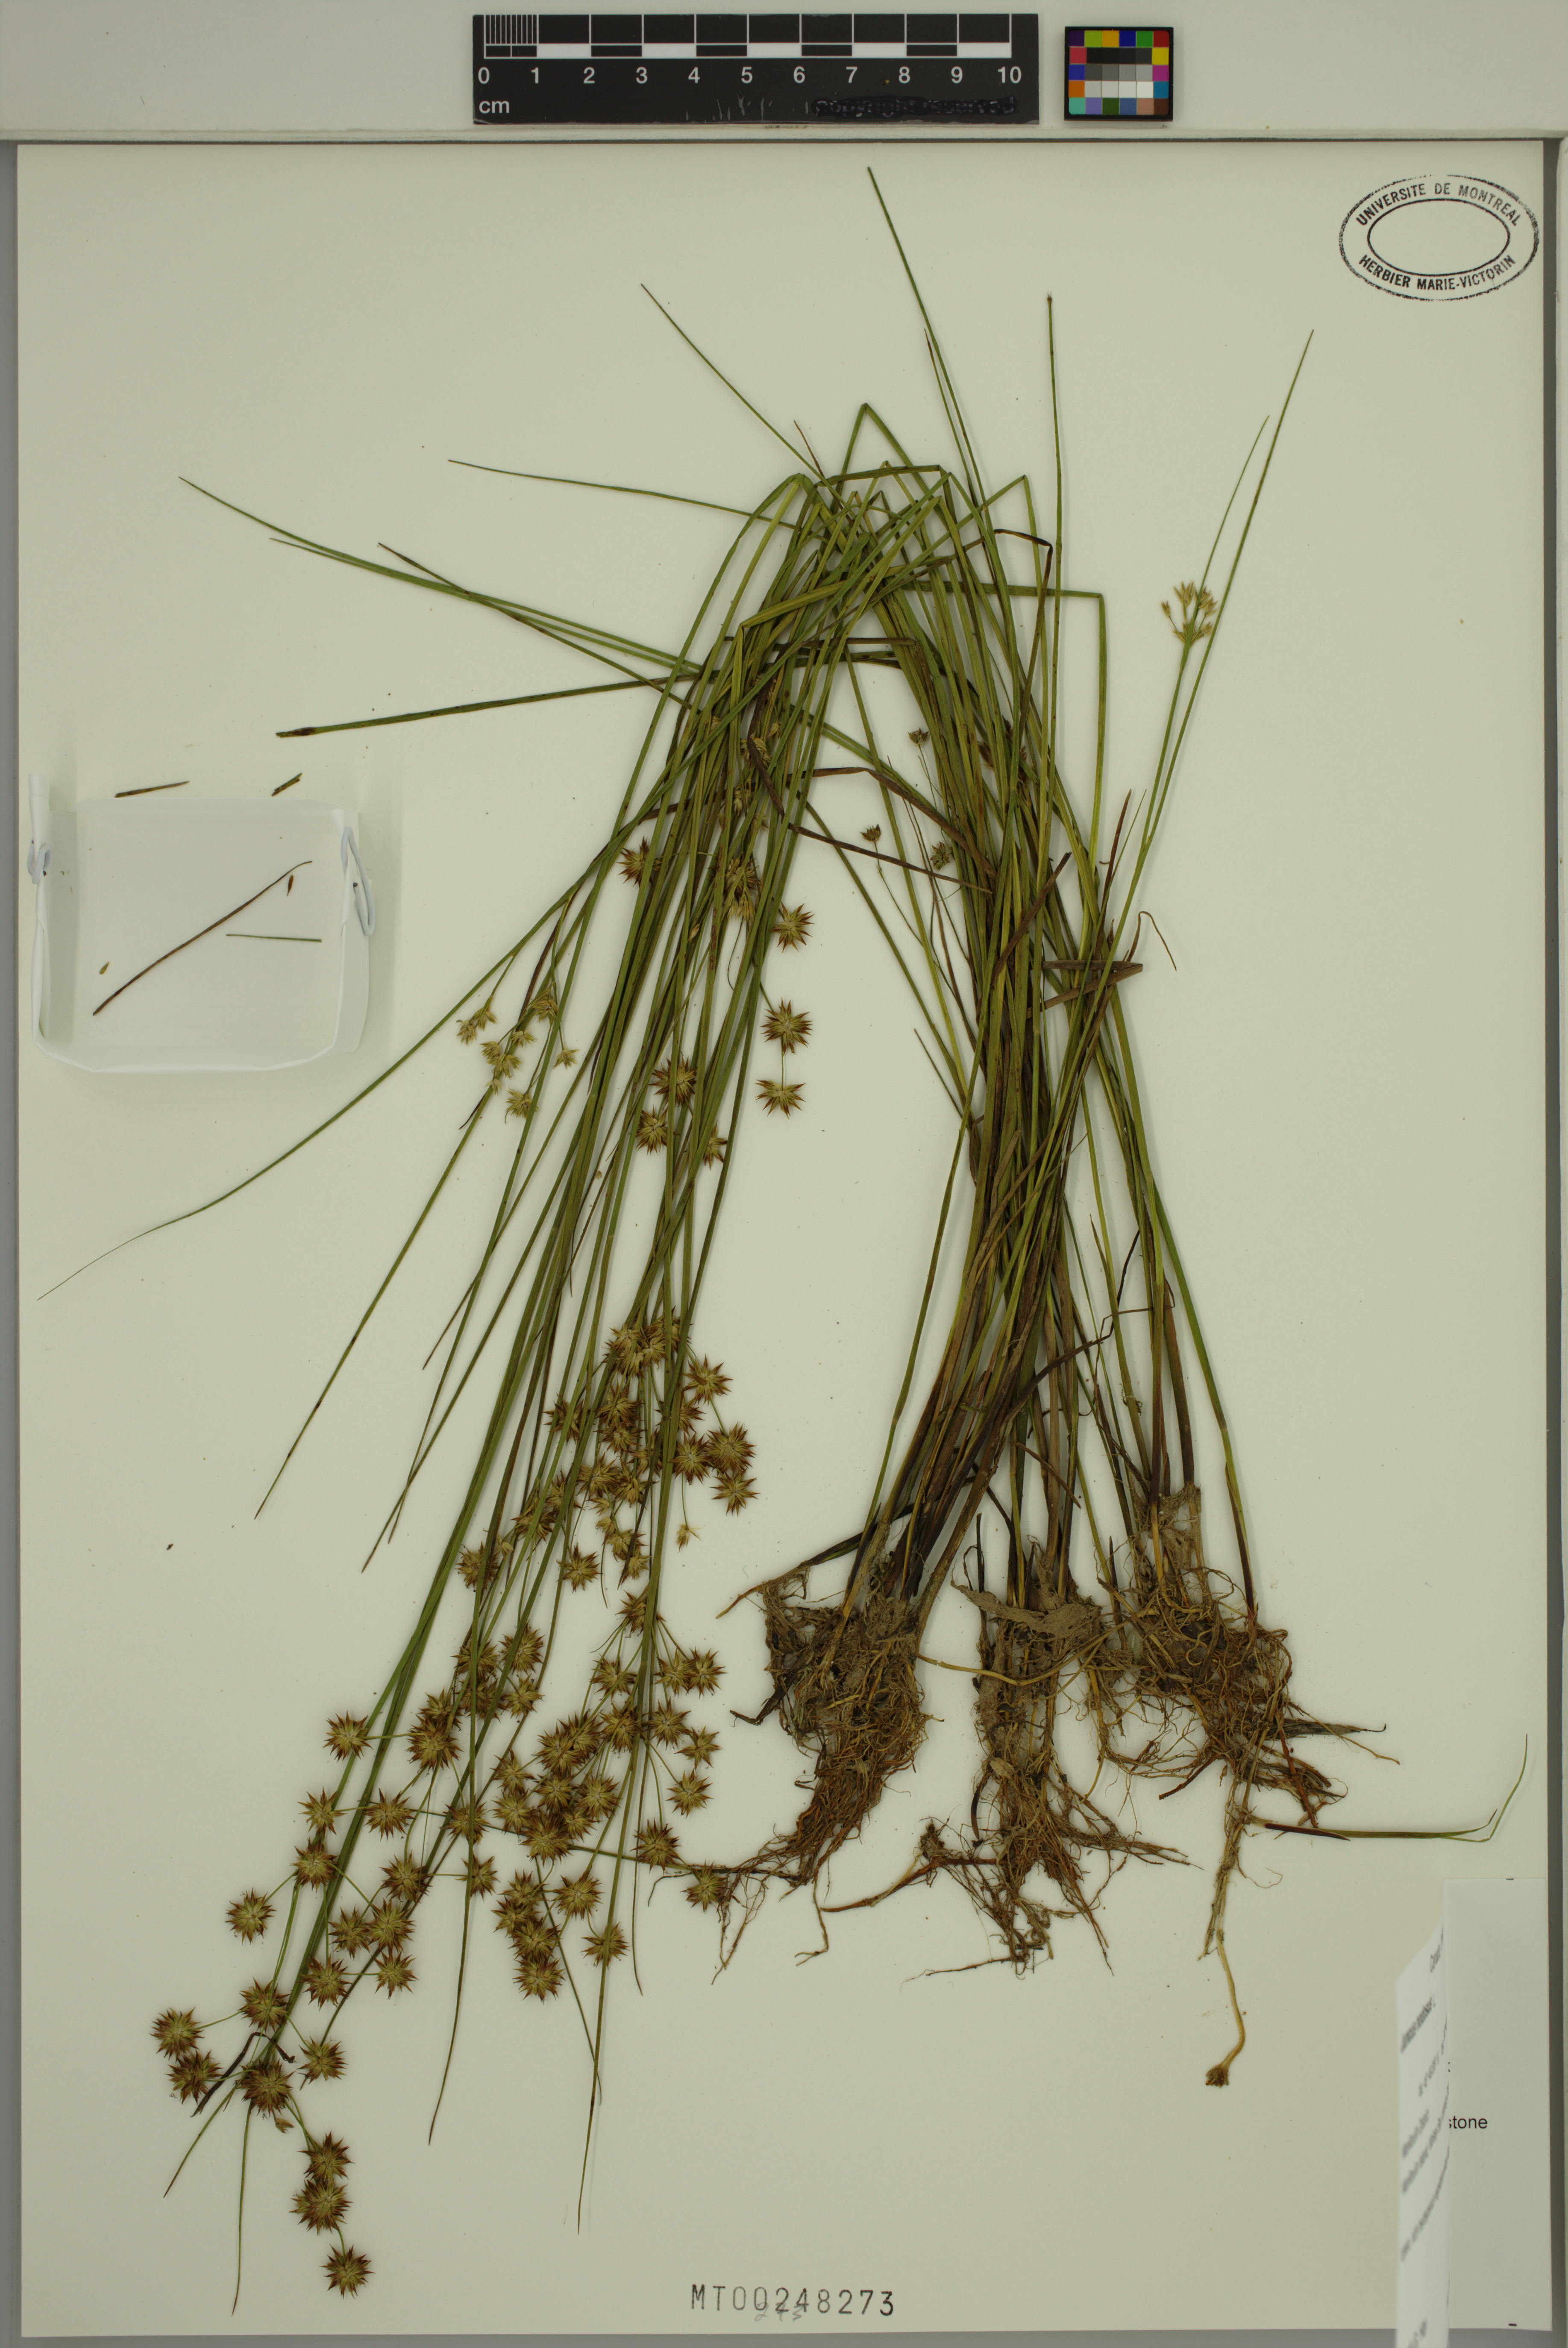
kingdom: Plantae
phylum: Tracheophyta
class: Liliopsida
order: Poales
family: Juncaceae
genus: Juncus
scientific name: Juncus nodosus
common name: Knotted rush
